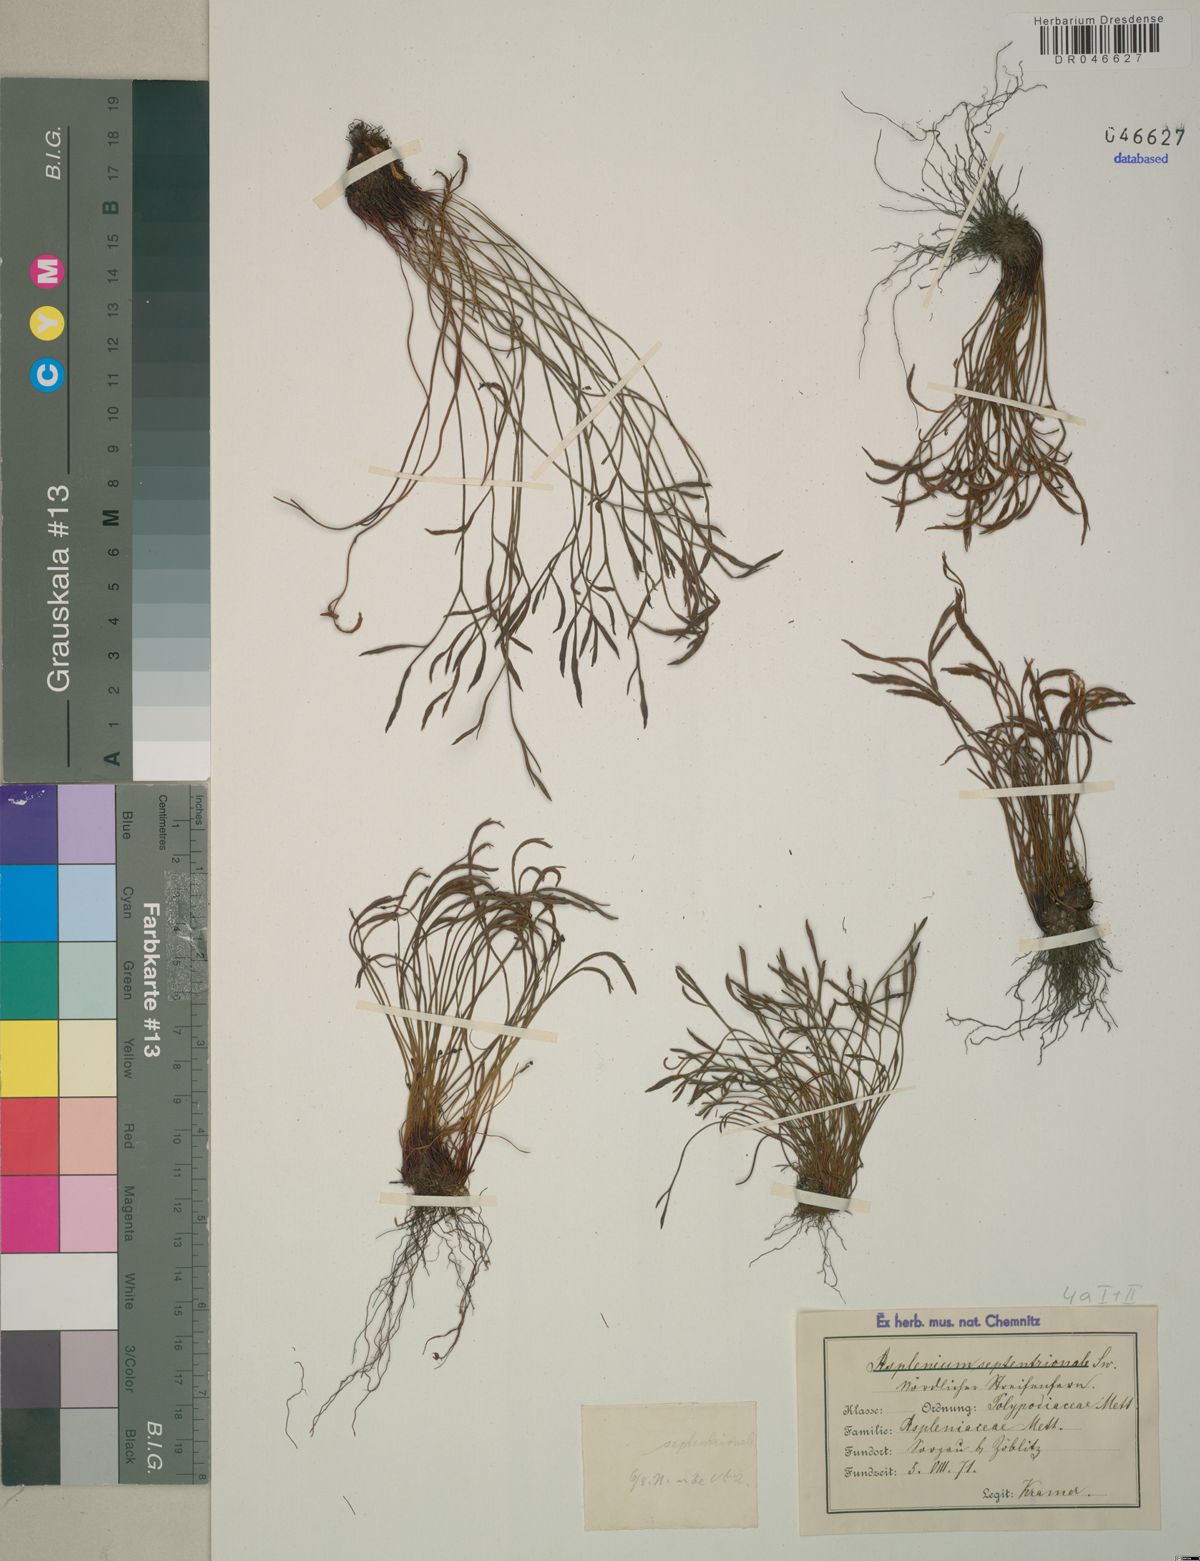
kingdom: Plantae
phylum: Tracheophyta
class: Polypodiopsida
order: Polypodiales
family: Aspleniaceae
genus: Asplenium
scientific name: Asplenium septentrionale
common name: Forked spleenwort
